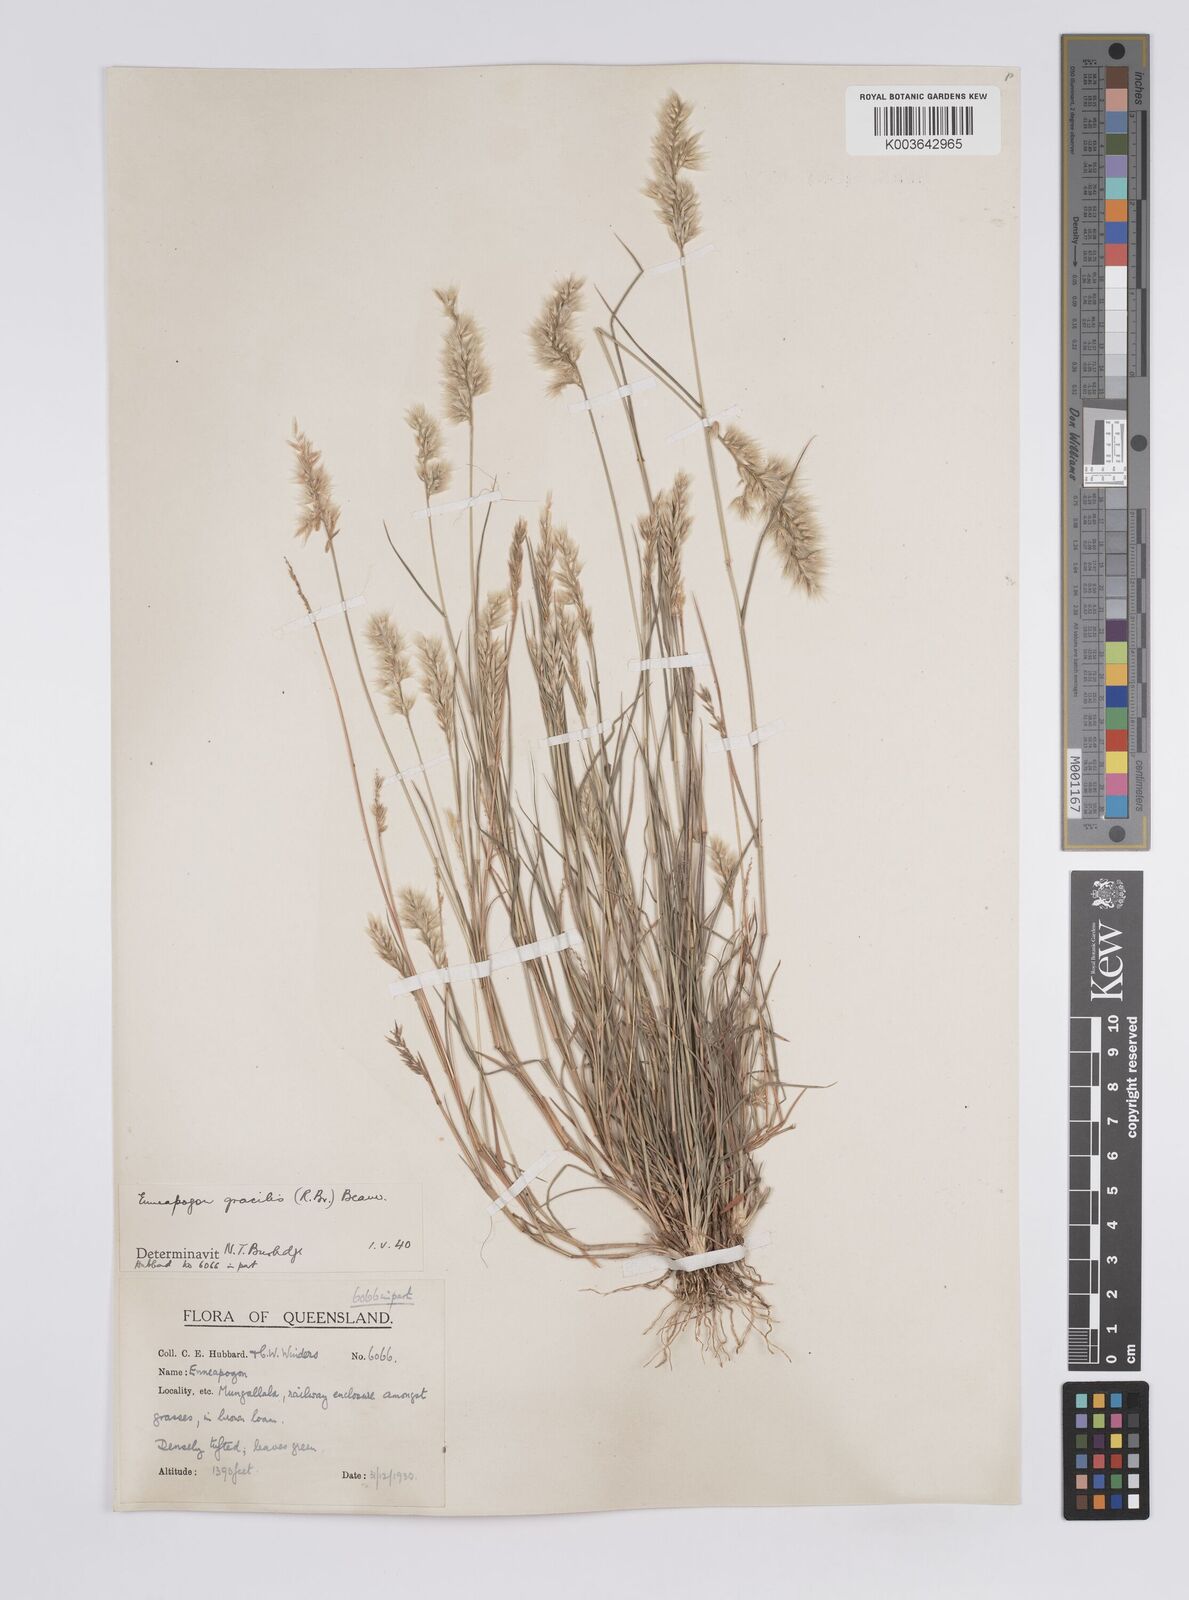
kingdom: Plantae
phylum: Tracheophyta
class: Liliopsida
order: Poales
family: Poaceae
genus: Enneapogon
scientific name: Enneapogon gracilis
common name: Slender bottle-washers
